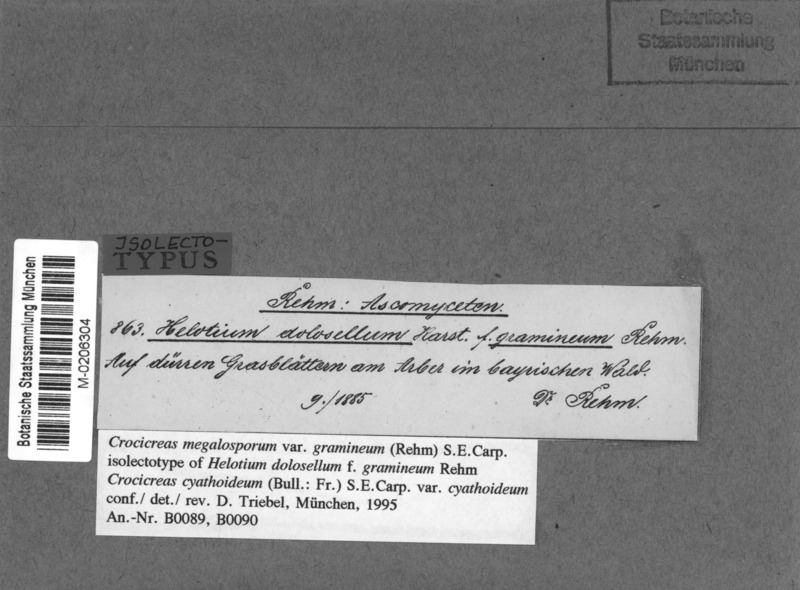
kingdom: Fungi
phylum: Ascomycota
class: Leotiomycetes
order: Helotiales
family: Helotiaceae
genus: Crocicreas
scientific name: Crocicreas megalosporum
